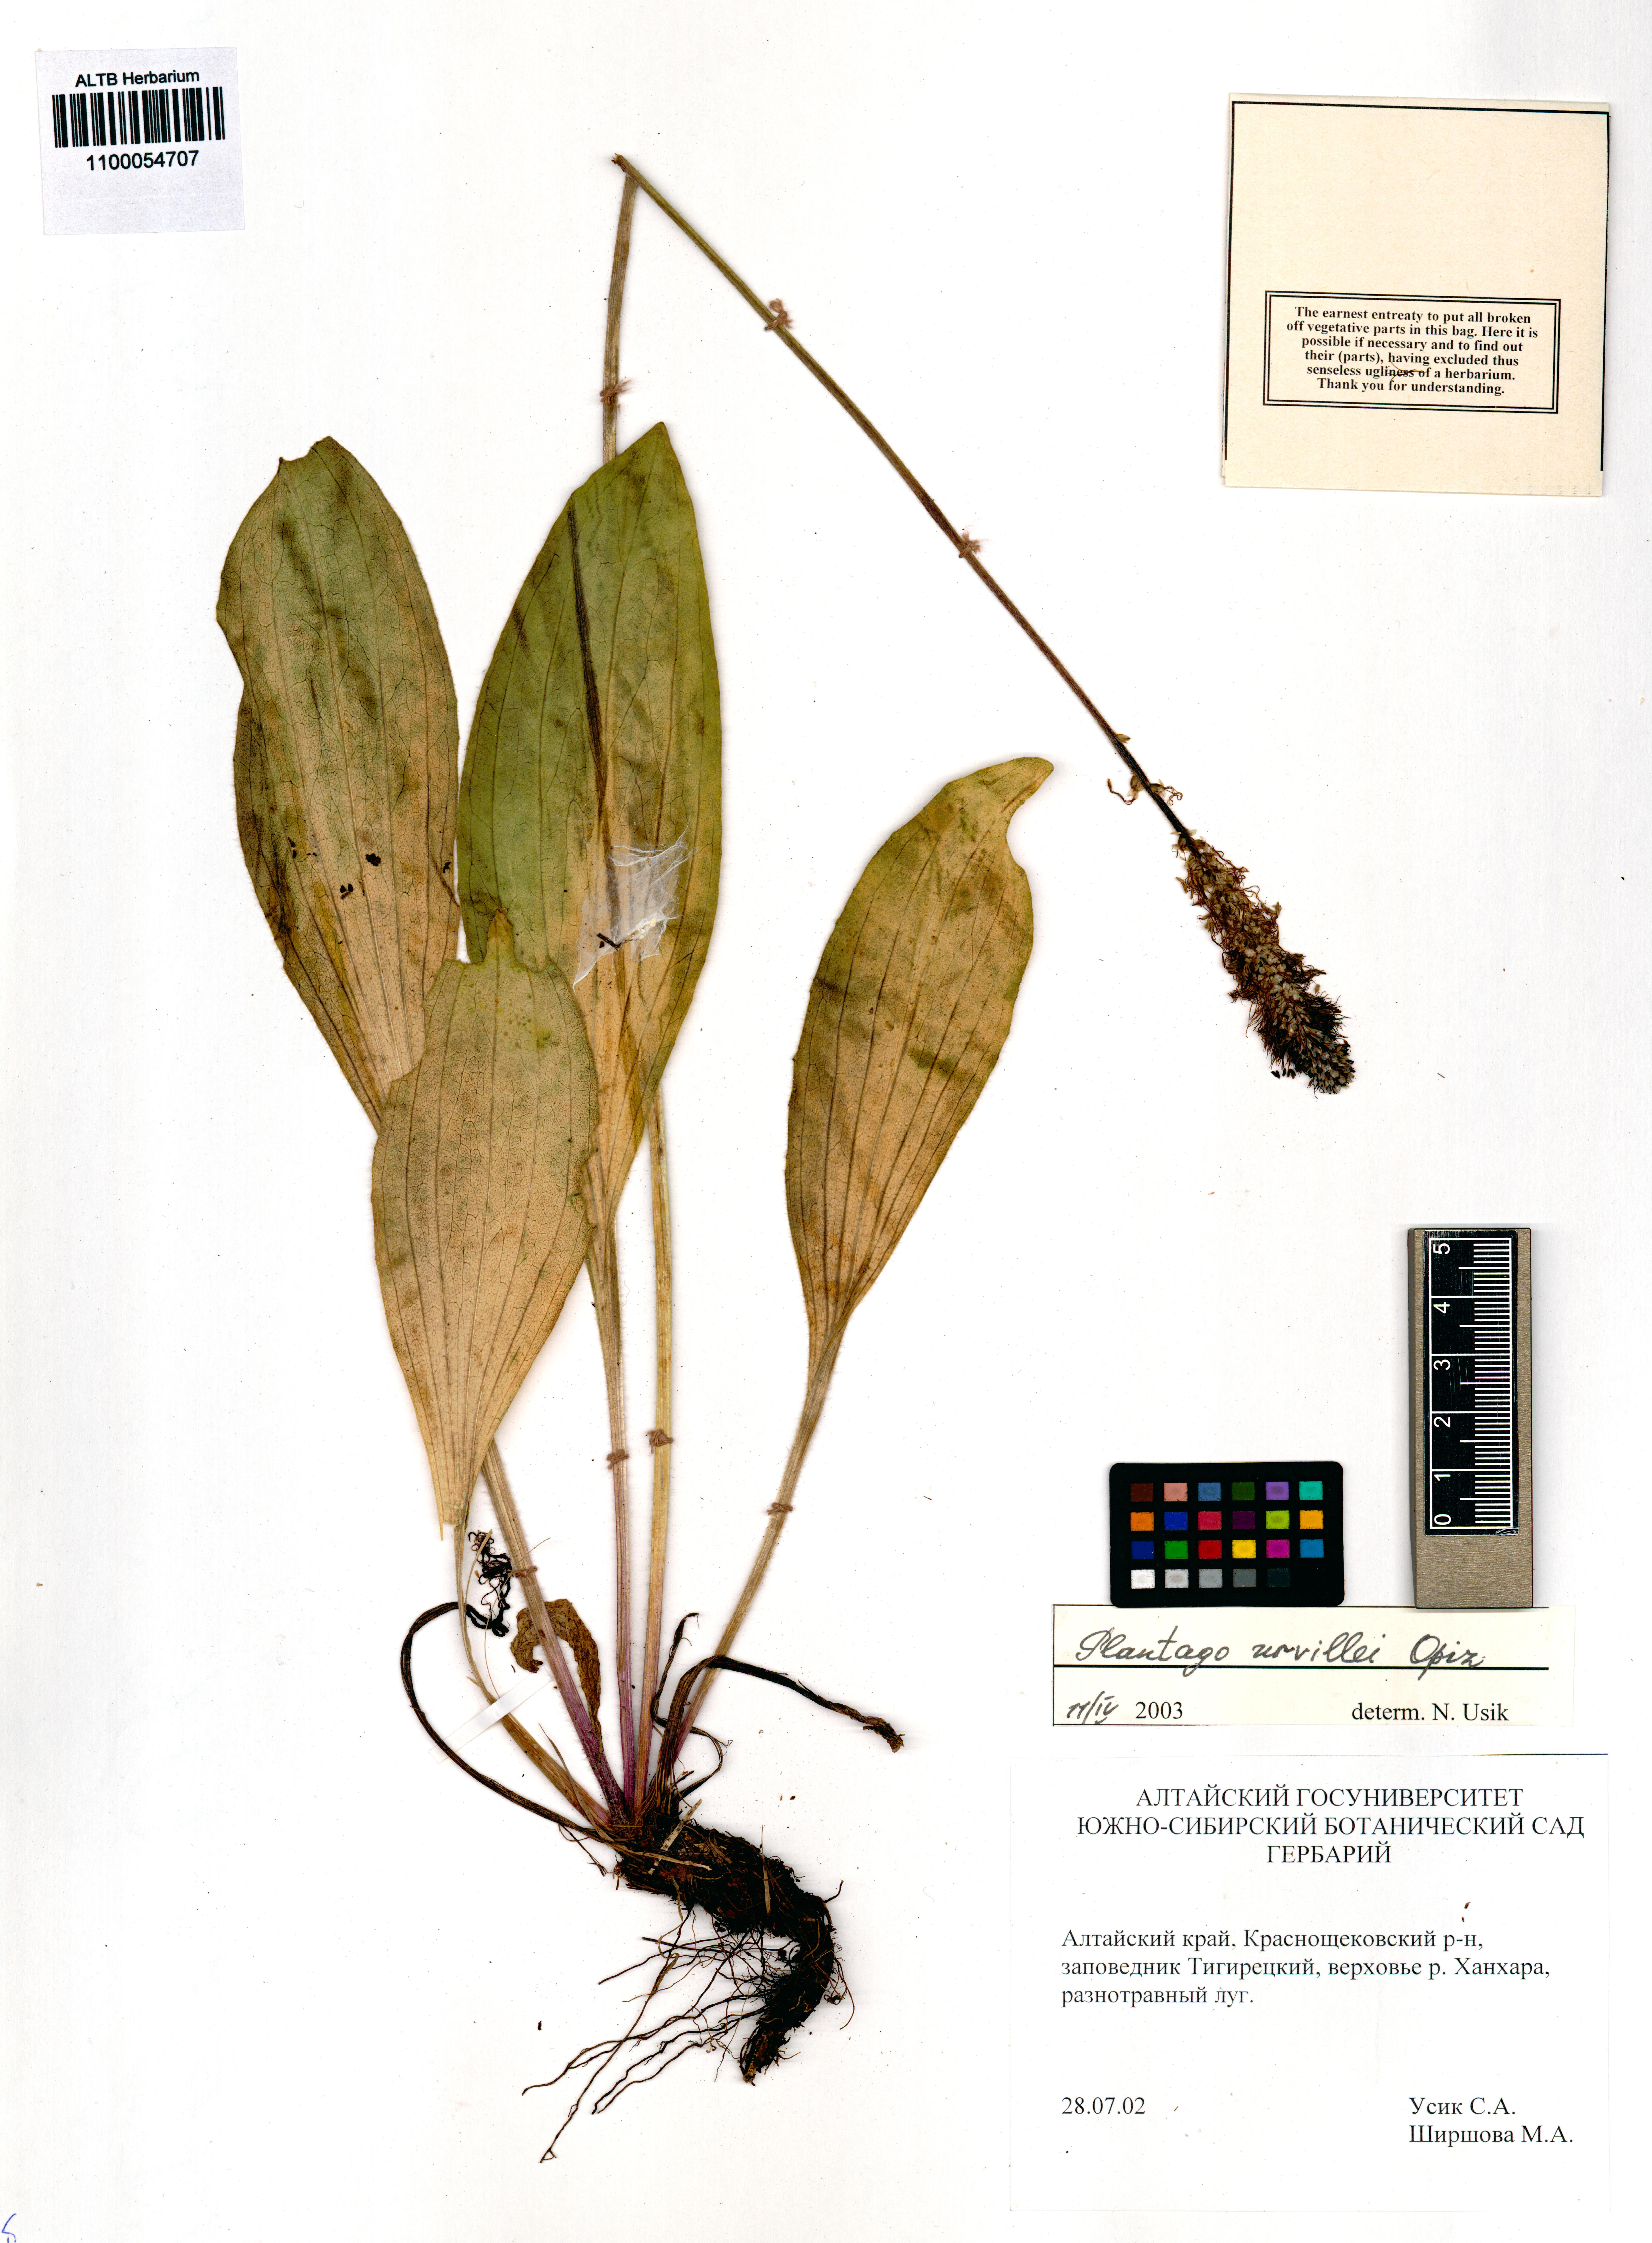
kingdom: Plantae
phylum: Tracheophyta
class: Magnoliopsida
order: Lamiales
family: Plantaginaceae
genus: Plantago
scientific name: Plantago urvillei
